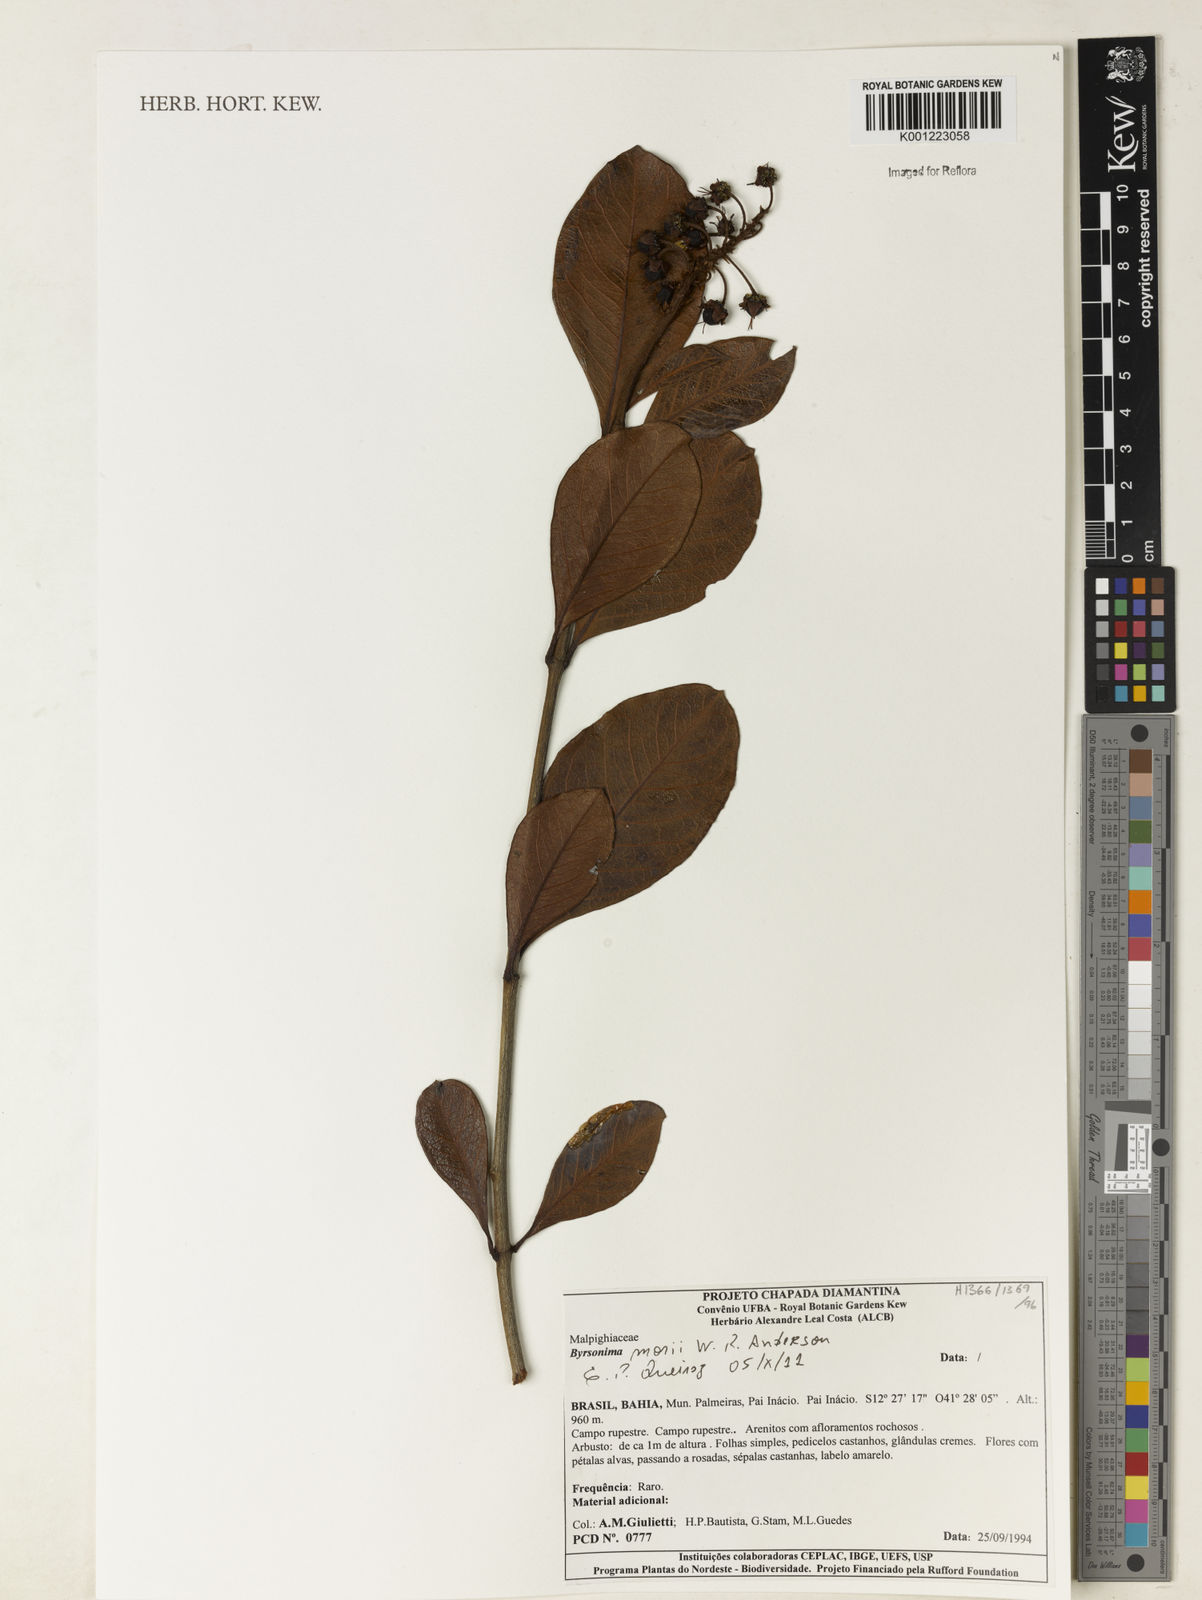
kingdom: Plantae
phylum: Tracheophyta
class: Magnoliopsida
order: Malpighiales
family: Malpighiaceae
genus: Byrsonima
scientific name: Byrsonima morii
